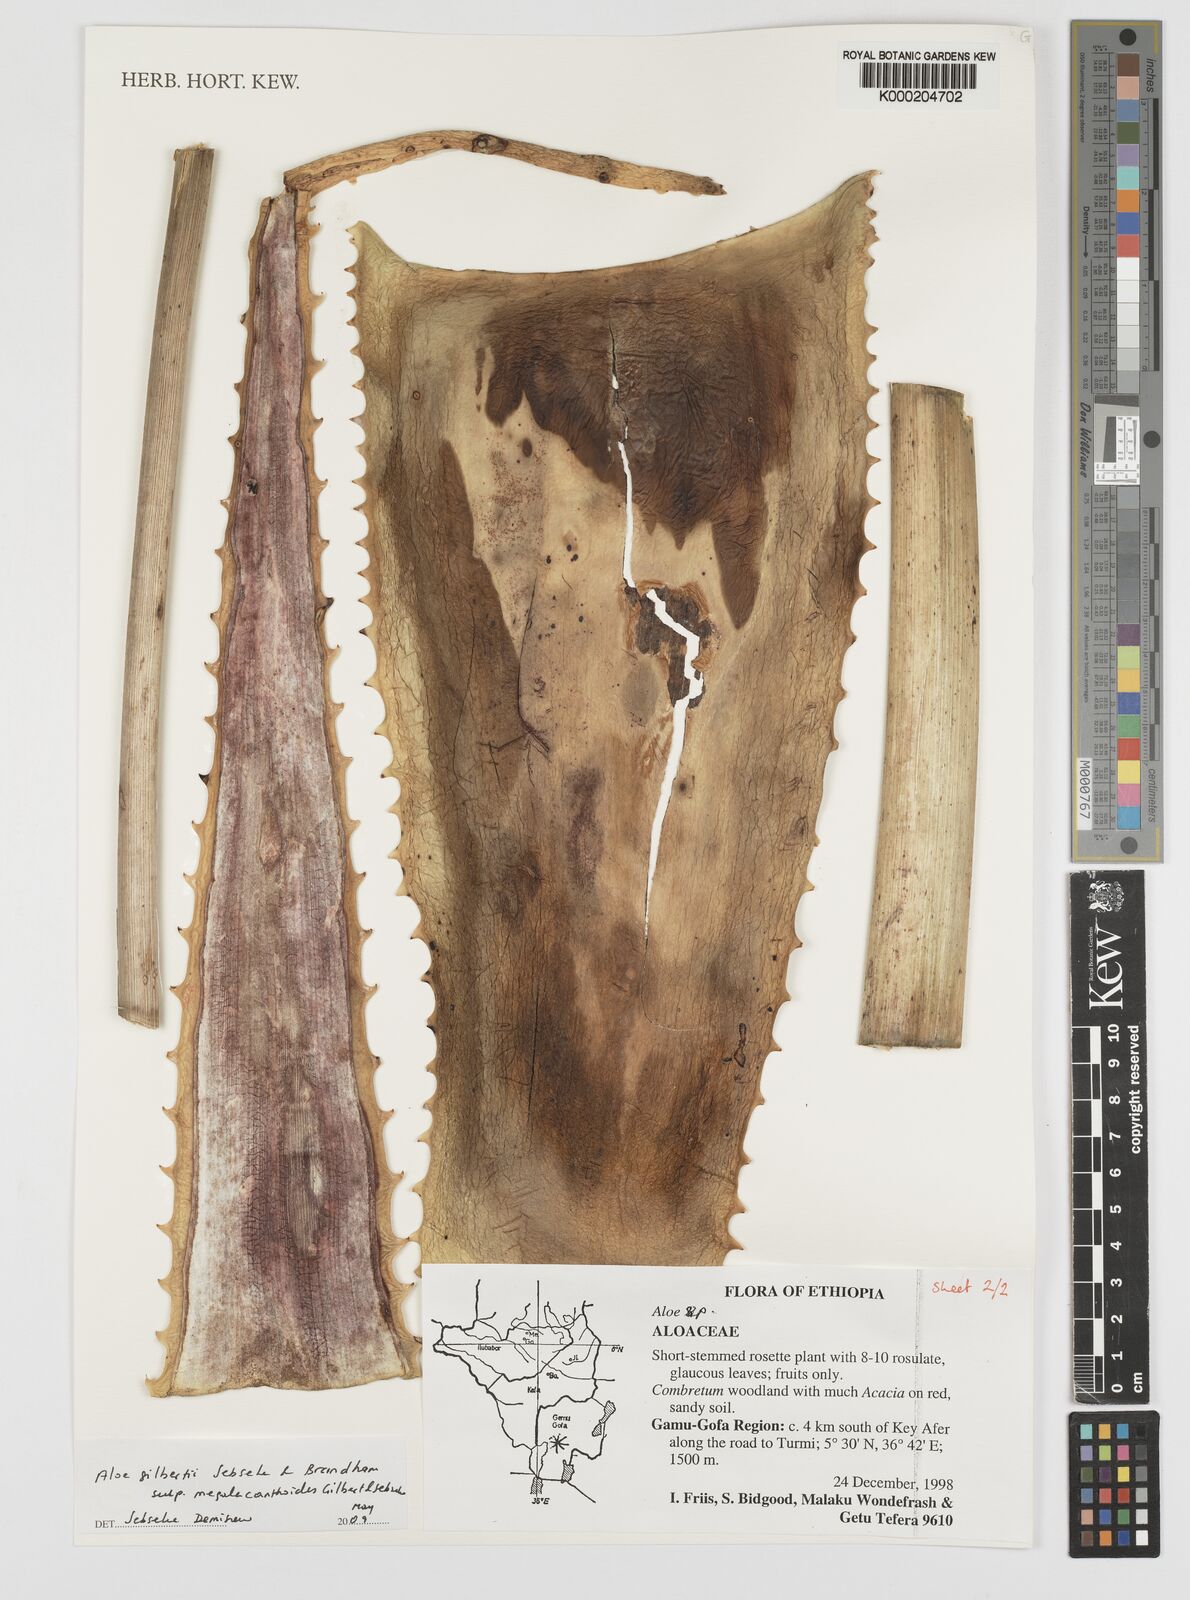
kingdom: Plantae
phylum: Tracheophyta
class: Liliopsida
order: Asparagales
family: Asphodelaceae
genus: Aloe
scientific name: Aloe gilbertii
